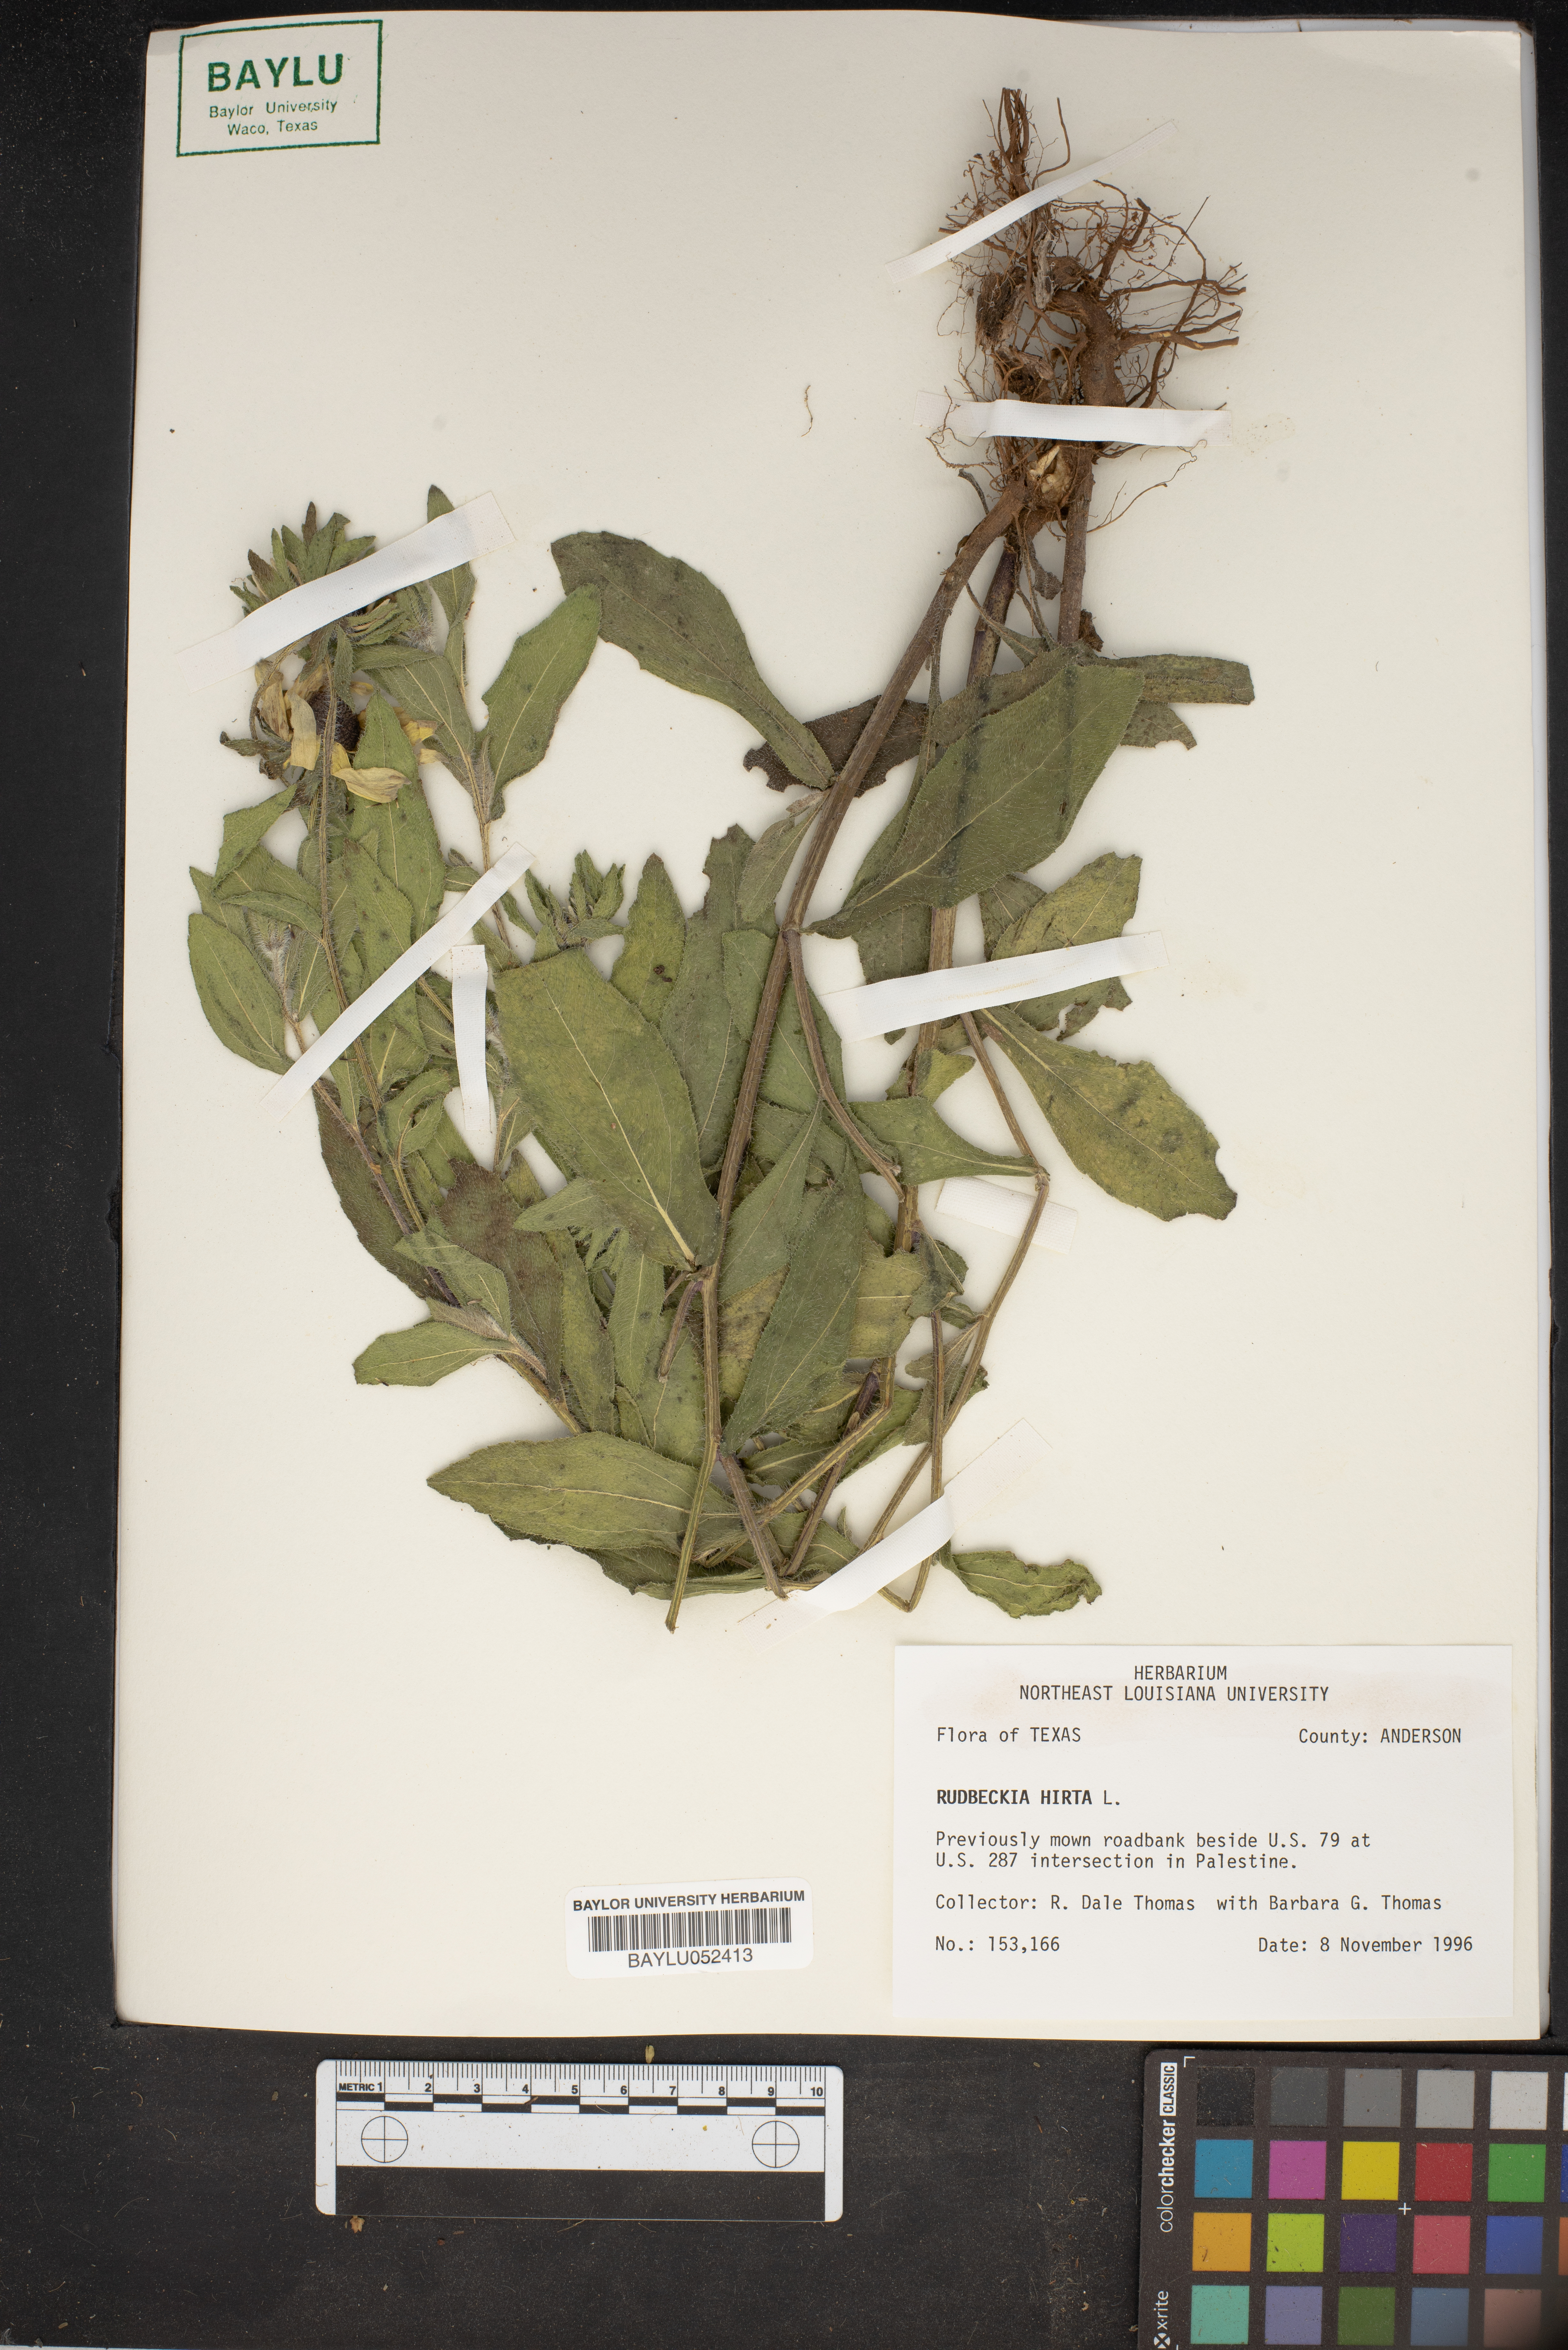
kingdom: Plantae
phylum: Tracheophyta
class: Magnoliopsida
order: Asterales
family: Asteraceae
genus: Rudbeckia
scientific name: Rudbeckia hirta
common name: Black-eyed-susan
